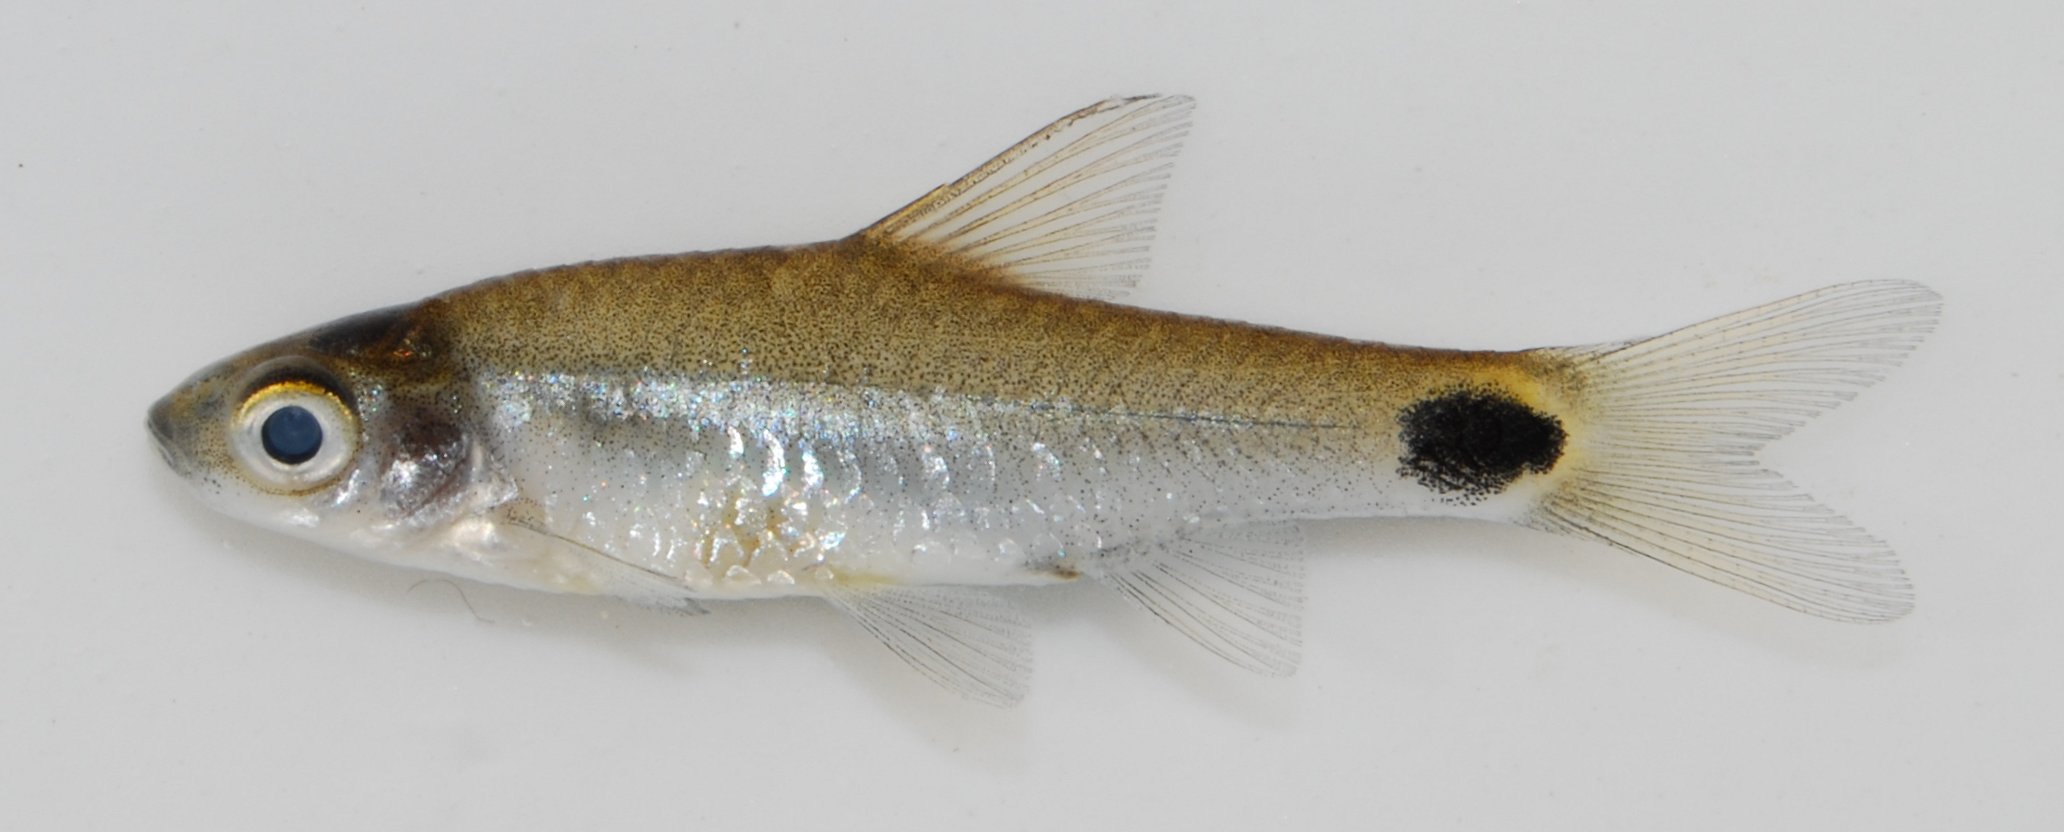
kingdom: Animalia
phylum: Chordata
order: Cypriniformes
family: Cyprinidae
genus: Enteromius
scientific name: Enteromius afrovernayi
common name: Spottail barb
